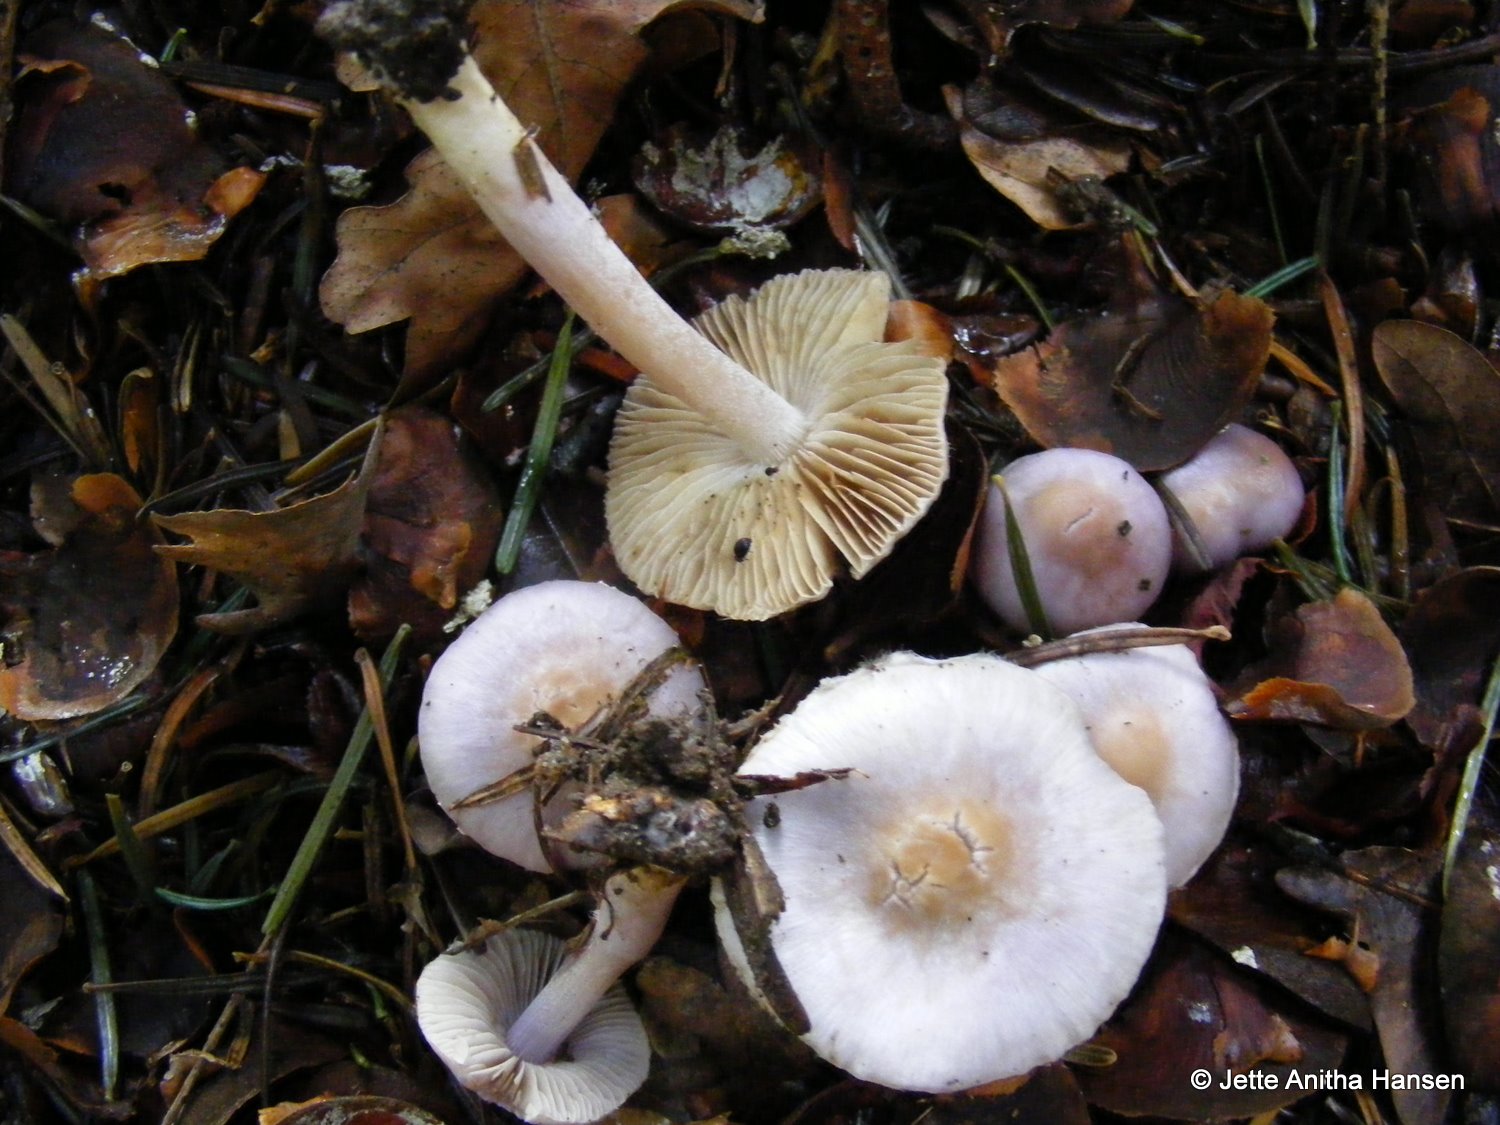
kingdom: Fungi
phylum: Basidiomycota
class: Agaricomycetes
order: Agaricales
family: Inocybaceae
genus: Inocybe
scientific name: Inocybe geophylla
